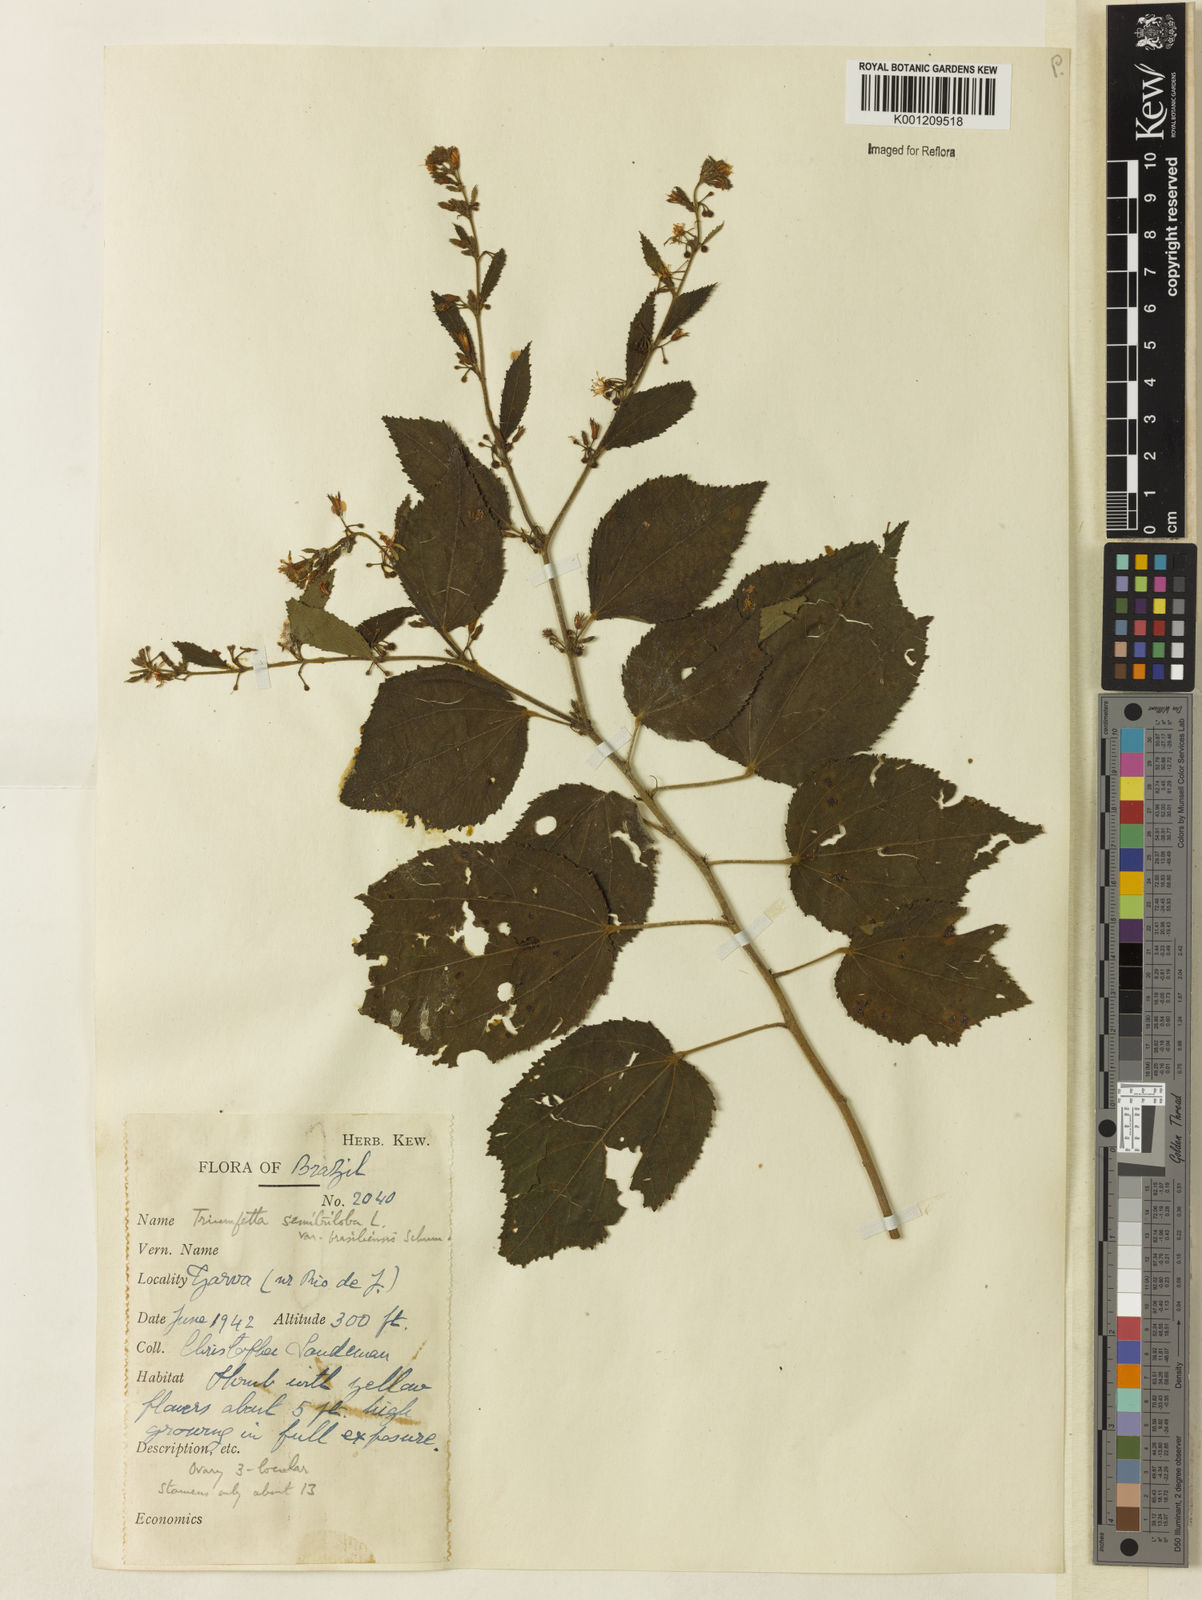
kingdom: Plantae
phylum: Tracheophyta
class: Magnoliopsida
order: Malvales
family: Malvaceae
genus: Triumfetta
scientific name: Triumfetta semitriloba
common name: Sacramento burbark
